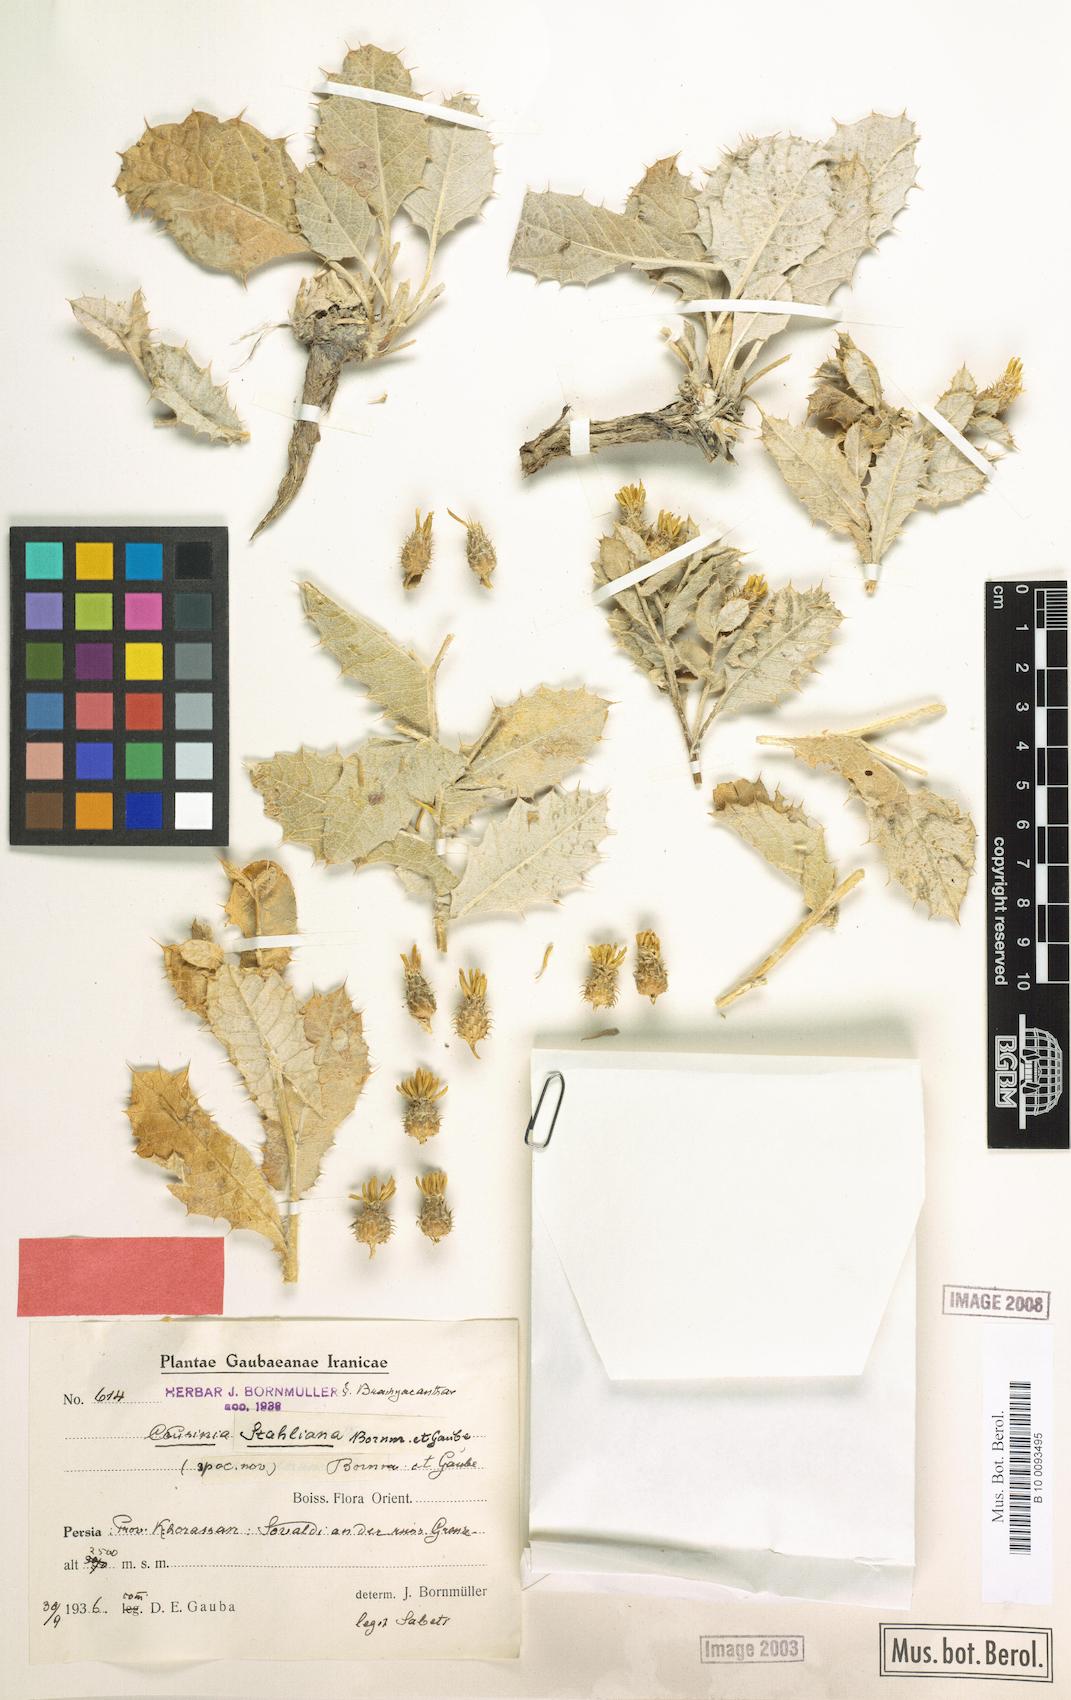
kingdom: Plantae
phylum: Tracheophyta
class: Magnoliopsida
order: Asterales
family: Asteraceae
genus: Cousinia
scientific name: Cousinia stahliana
